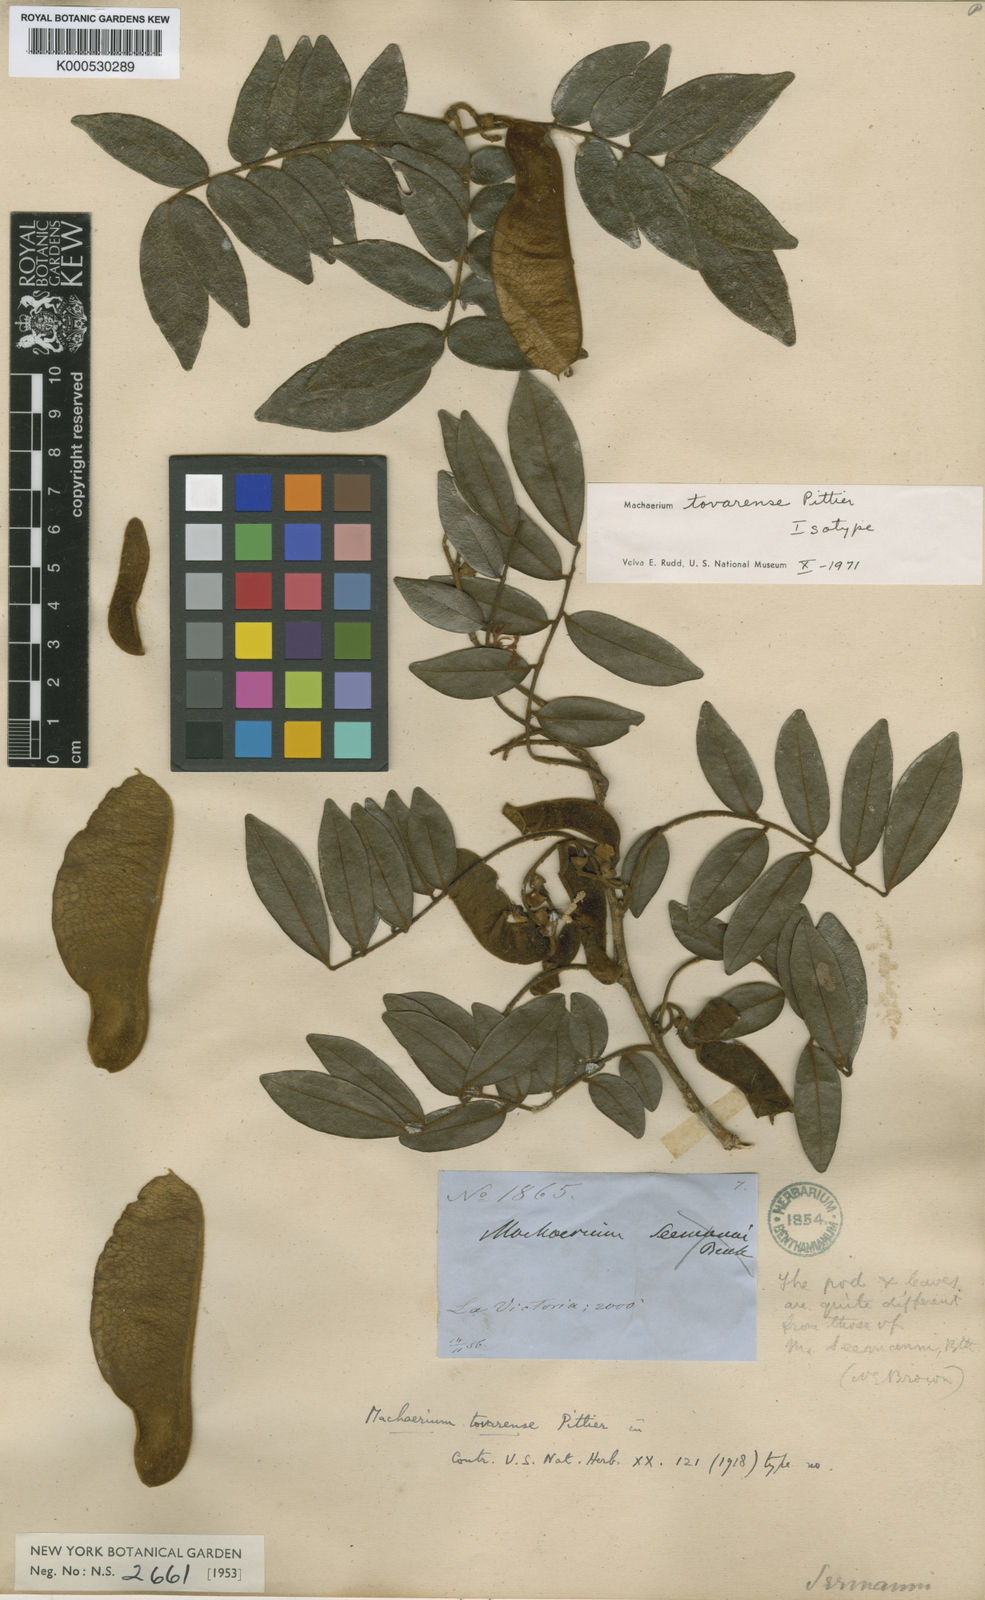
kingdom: Plantae
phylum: Tracheophyta
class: Magnoliopsida
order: Fabales
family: Fabaceae
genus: Machaerium
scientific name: Machaerium tovarense
